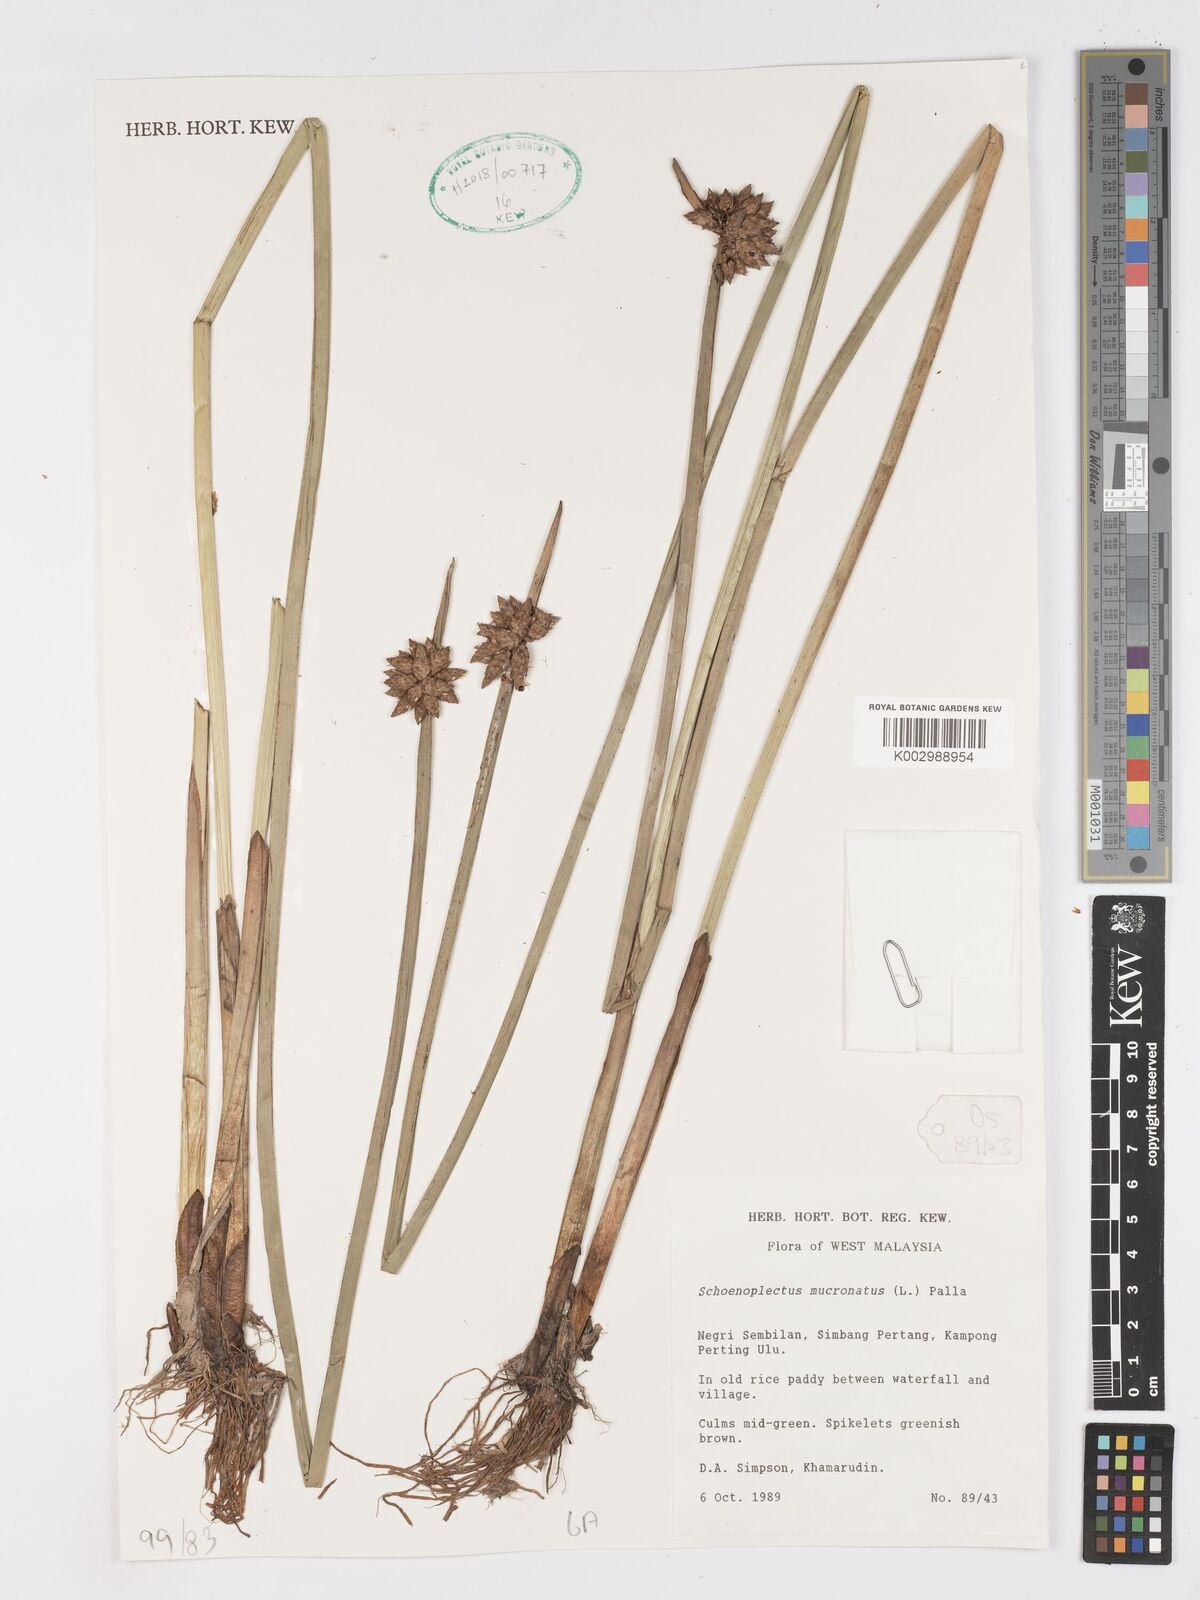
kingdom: Plantae
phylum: Tracheophyta
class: Liliopsida
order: Poales
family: Cyperaceae
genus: Schoenoplectiella
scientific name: Schoenoplectiella mucronata
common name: Bog bulrush
